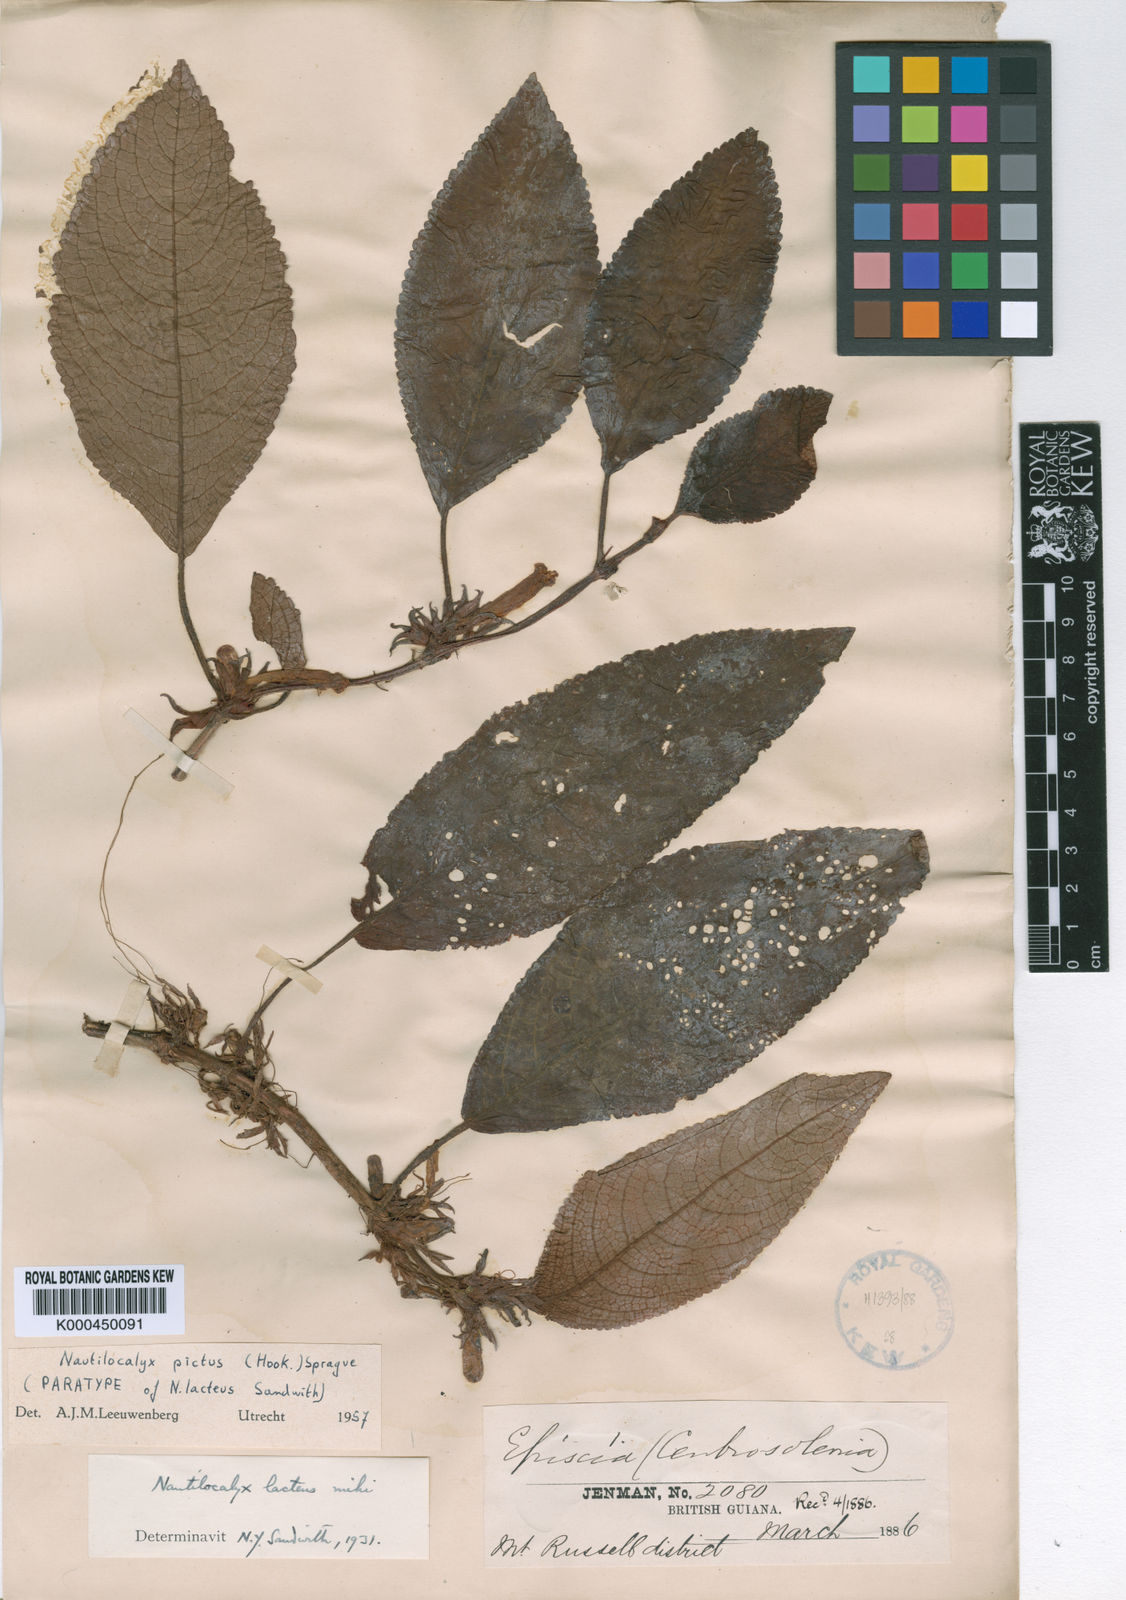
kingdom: Plantae
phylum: Tracheophyta
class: Magnoliopsida
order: Lamiales
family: Gesneriaceae
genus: Centrosolenia
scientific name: Centrosolenia picta
